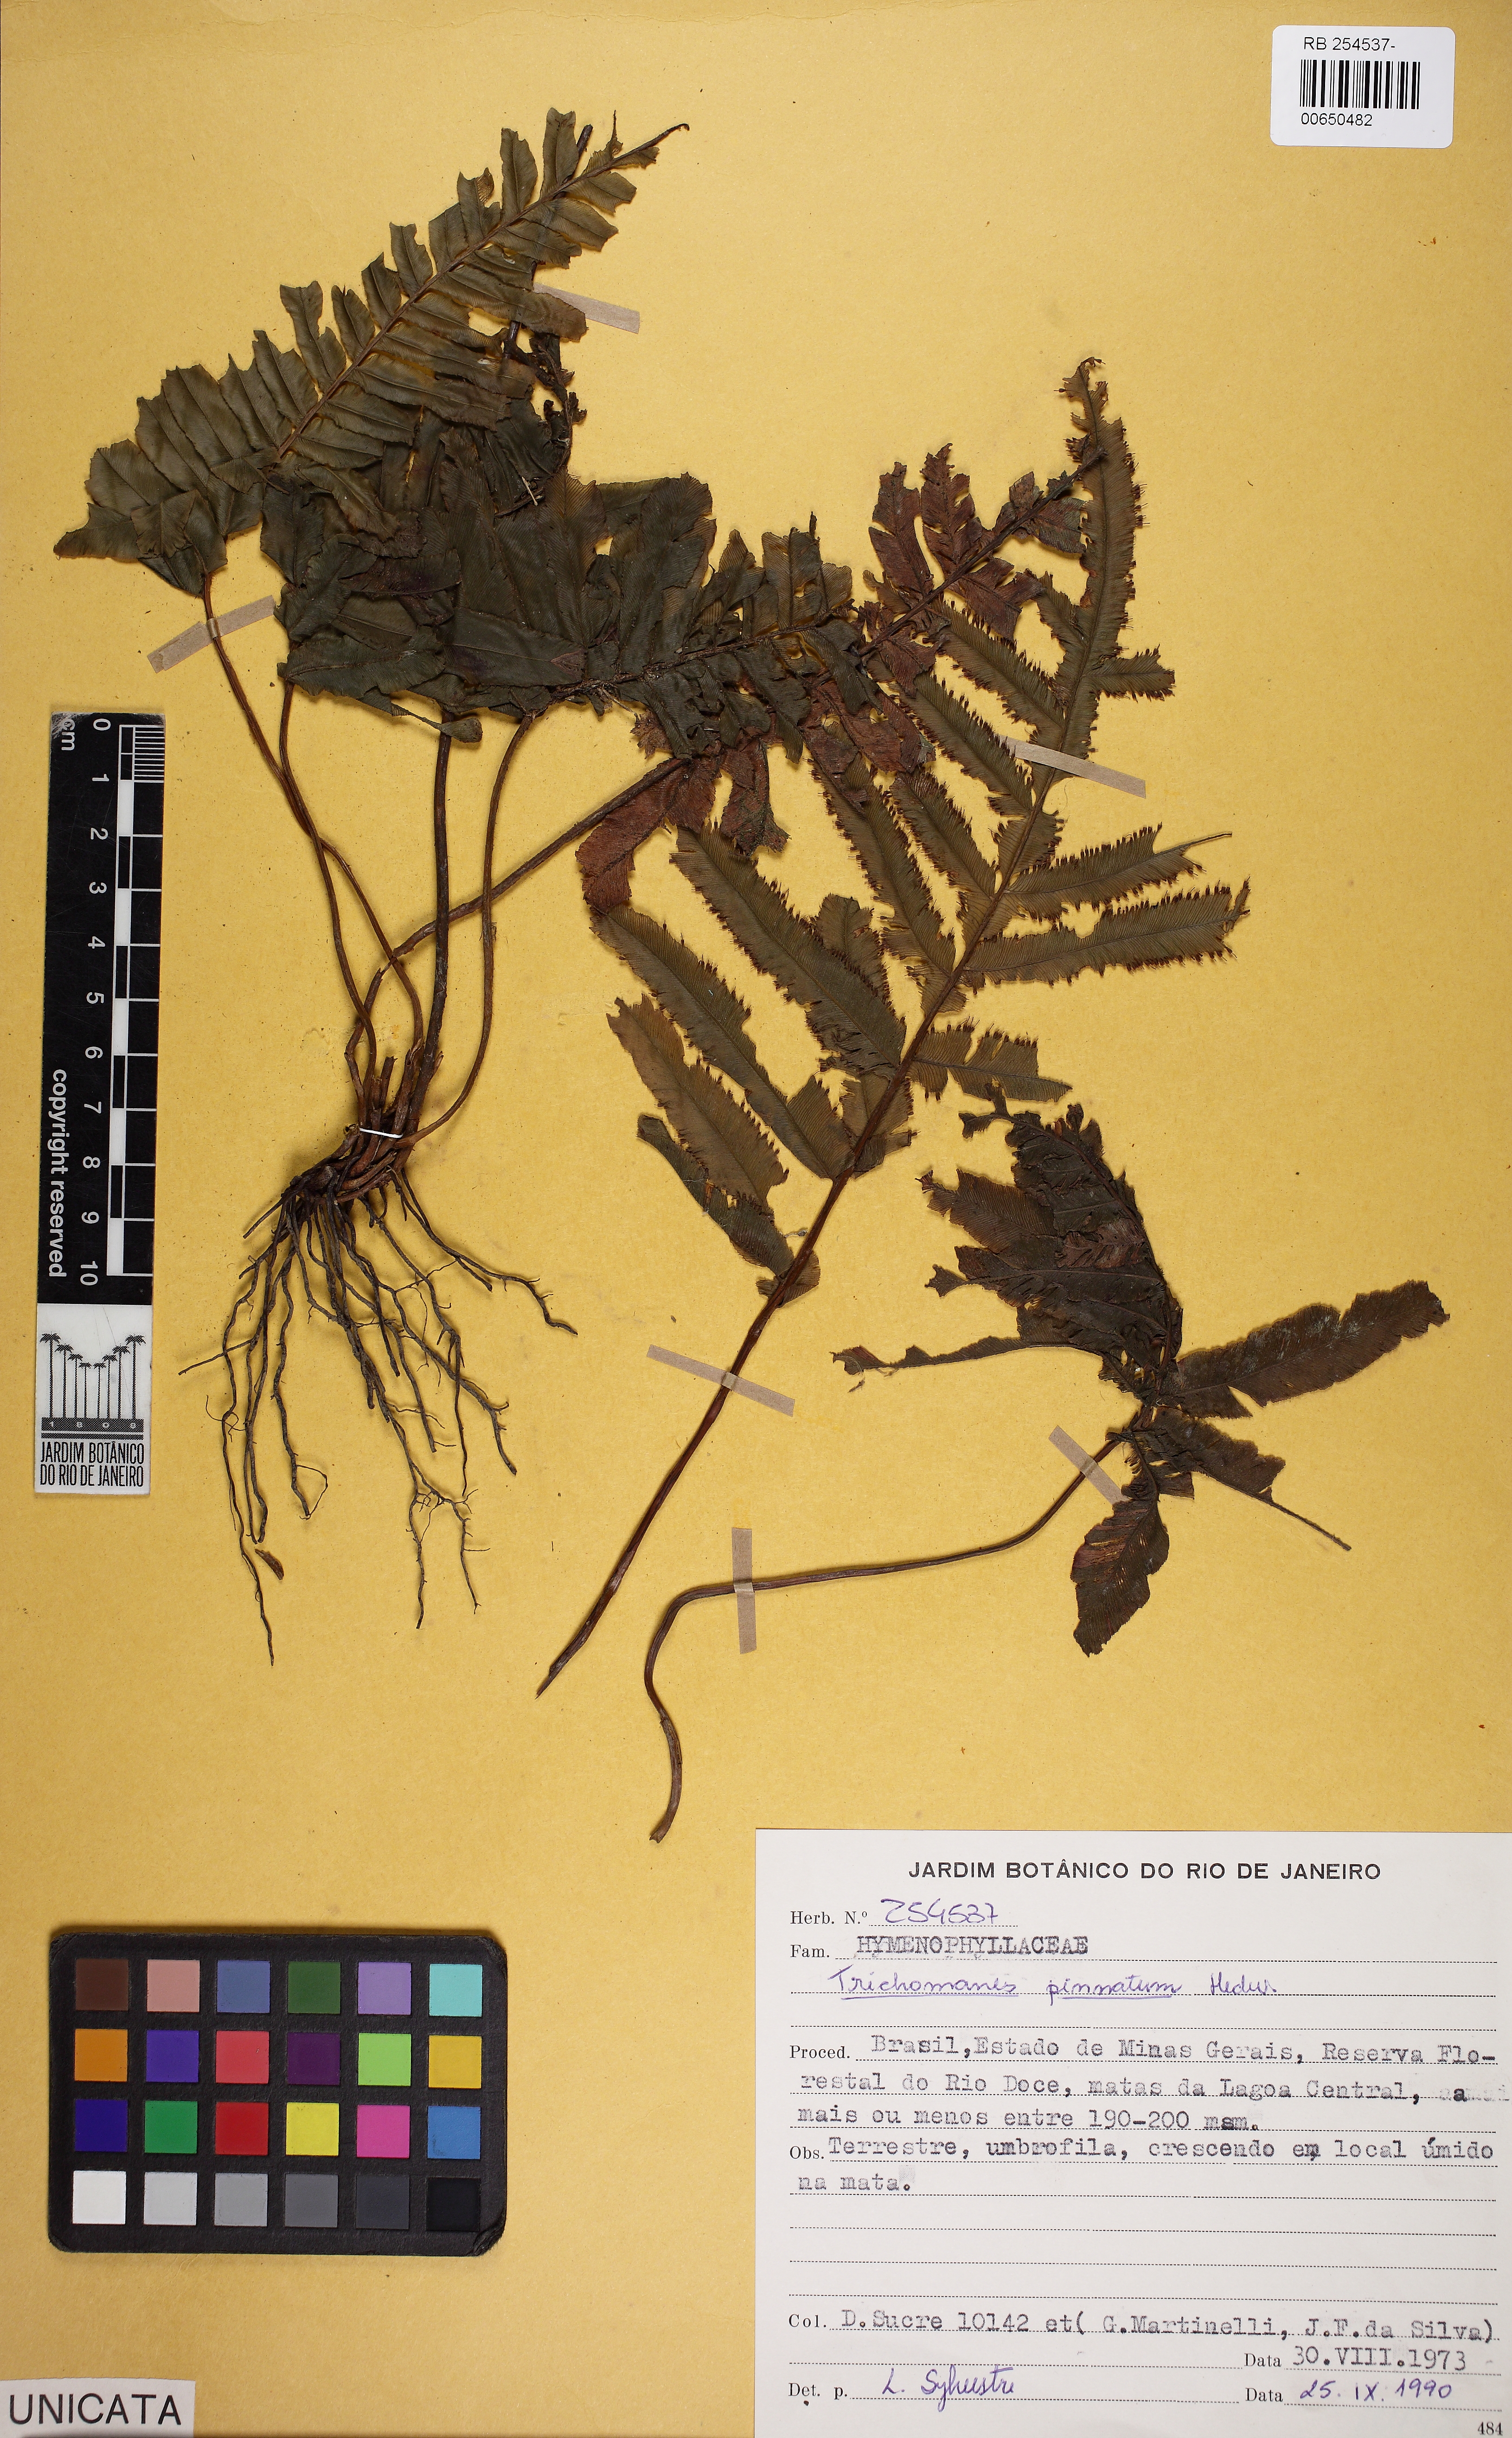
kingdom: Plantae
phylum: Tracheophyta
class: Polypodiopsida
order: Hymenophyllales
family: Hymenophyllaceae
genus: Trichomanes
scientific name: Trichomanes pinnatum
